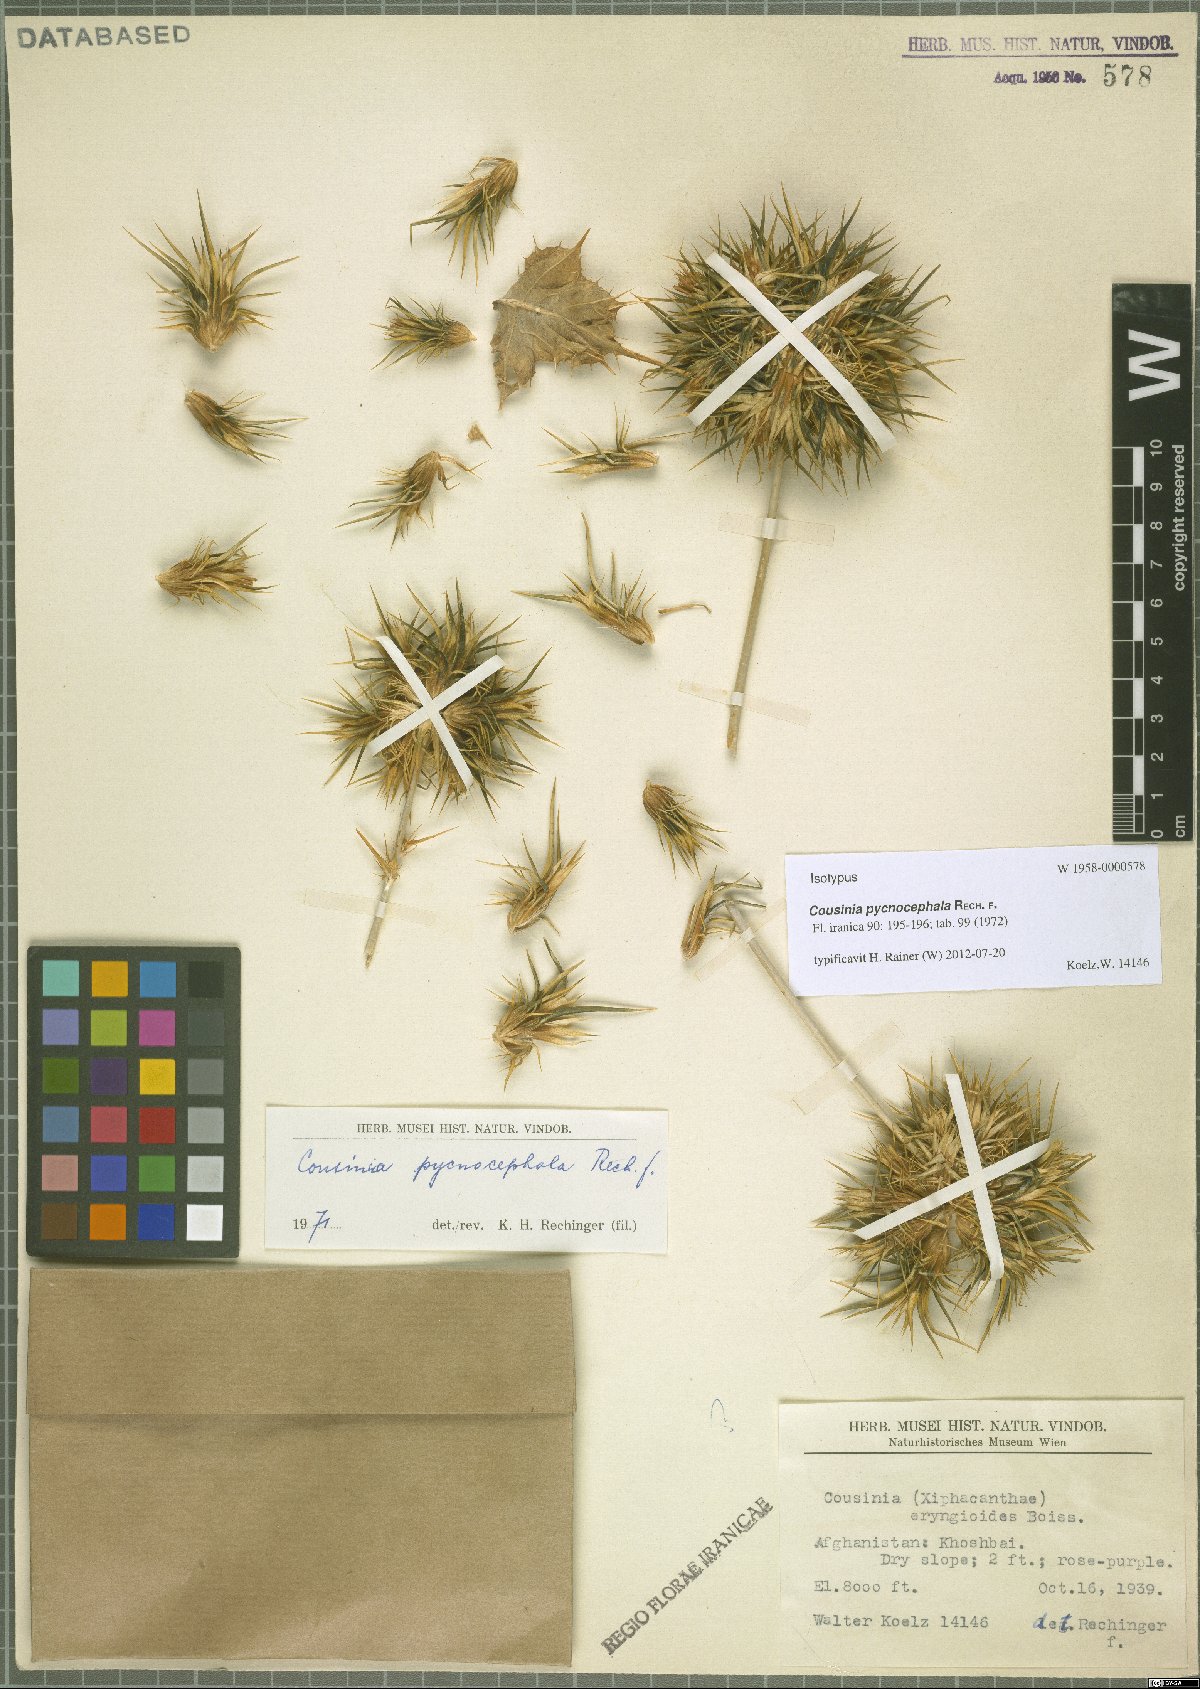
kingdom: Plantae
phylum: Tracheophyta
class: Magnoliopsida
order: Asterales
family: Asteraceae
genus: Cousinia
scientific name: Cousinia pycnocephala
